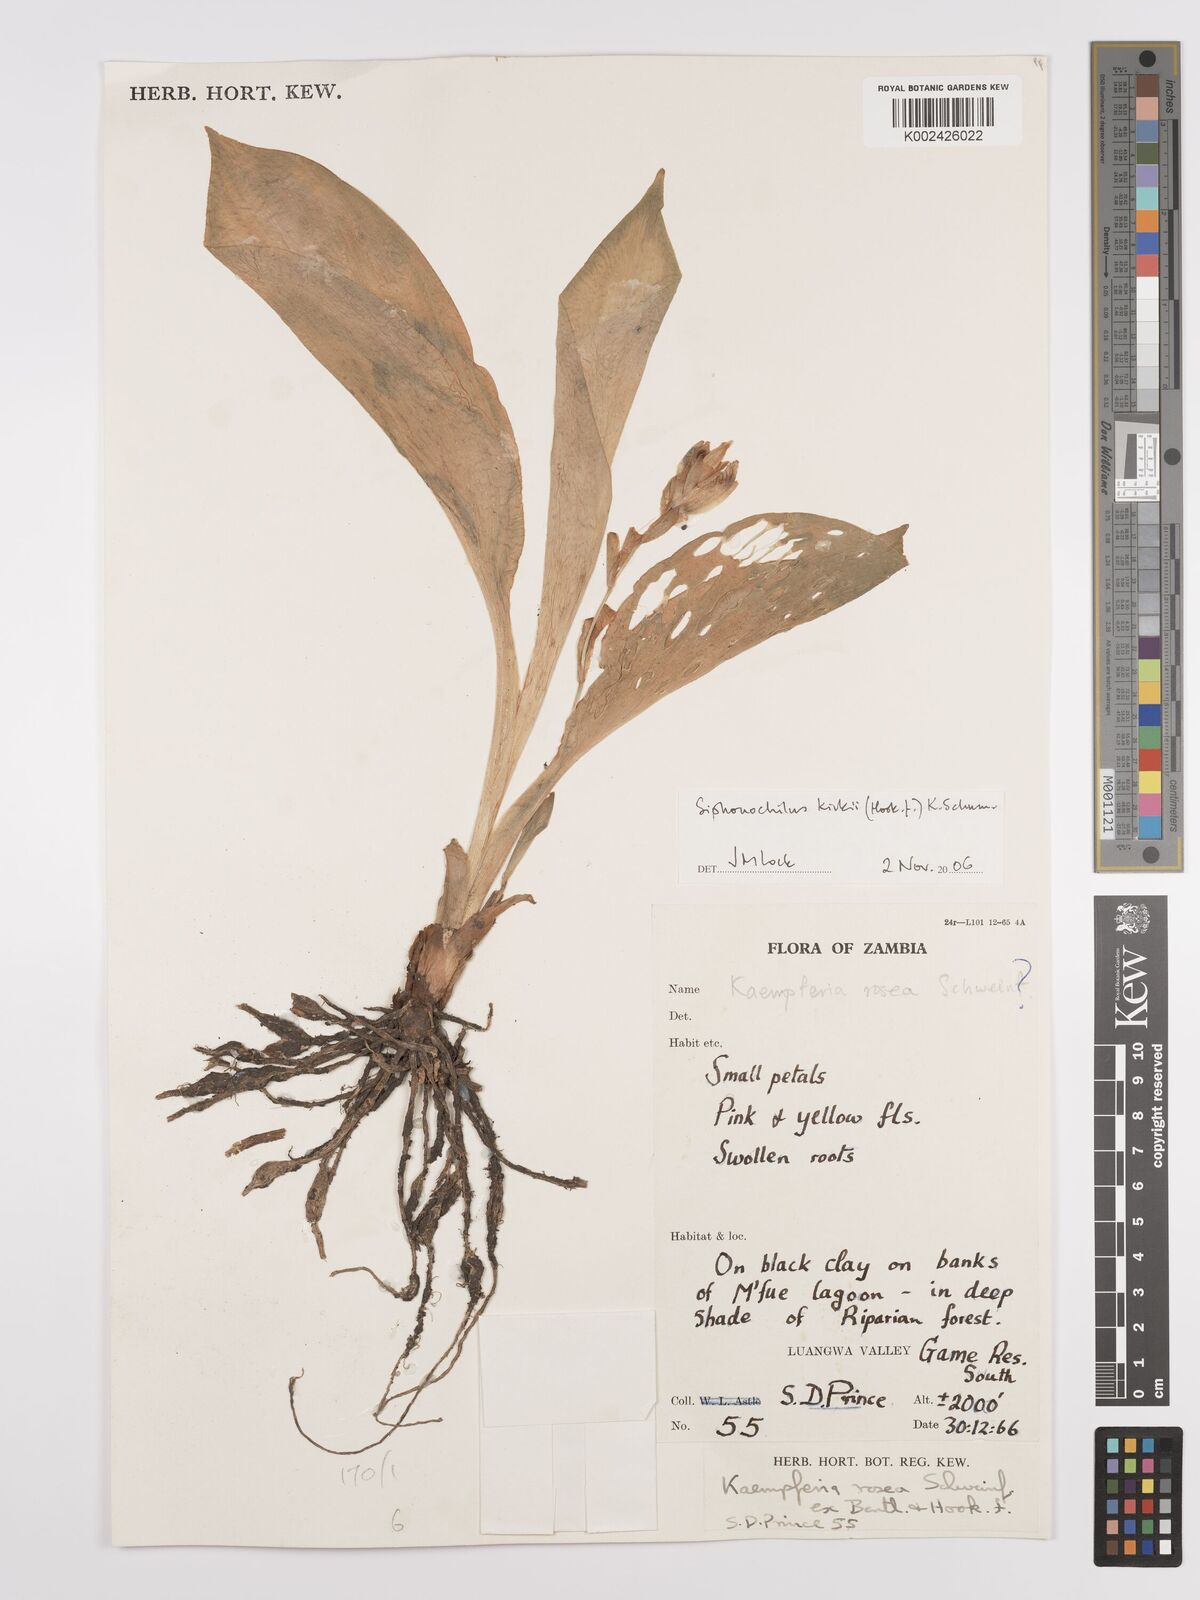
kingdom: Plantae
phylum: Tracheophyta
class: Liliopsida
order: Zingiberales
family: Zingiberaceae
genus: Siphonochilus
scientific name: Siphonochilus kirkii
